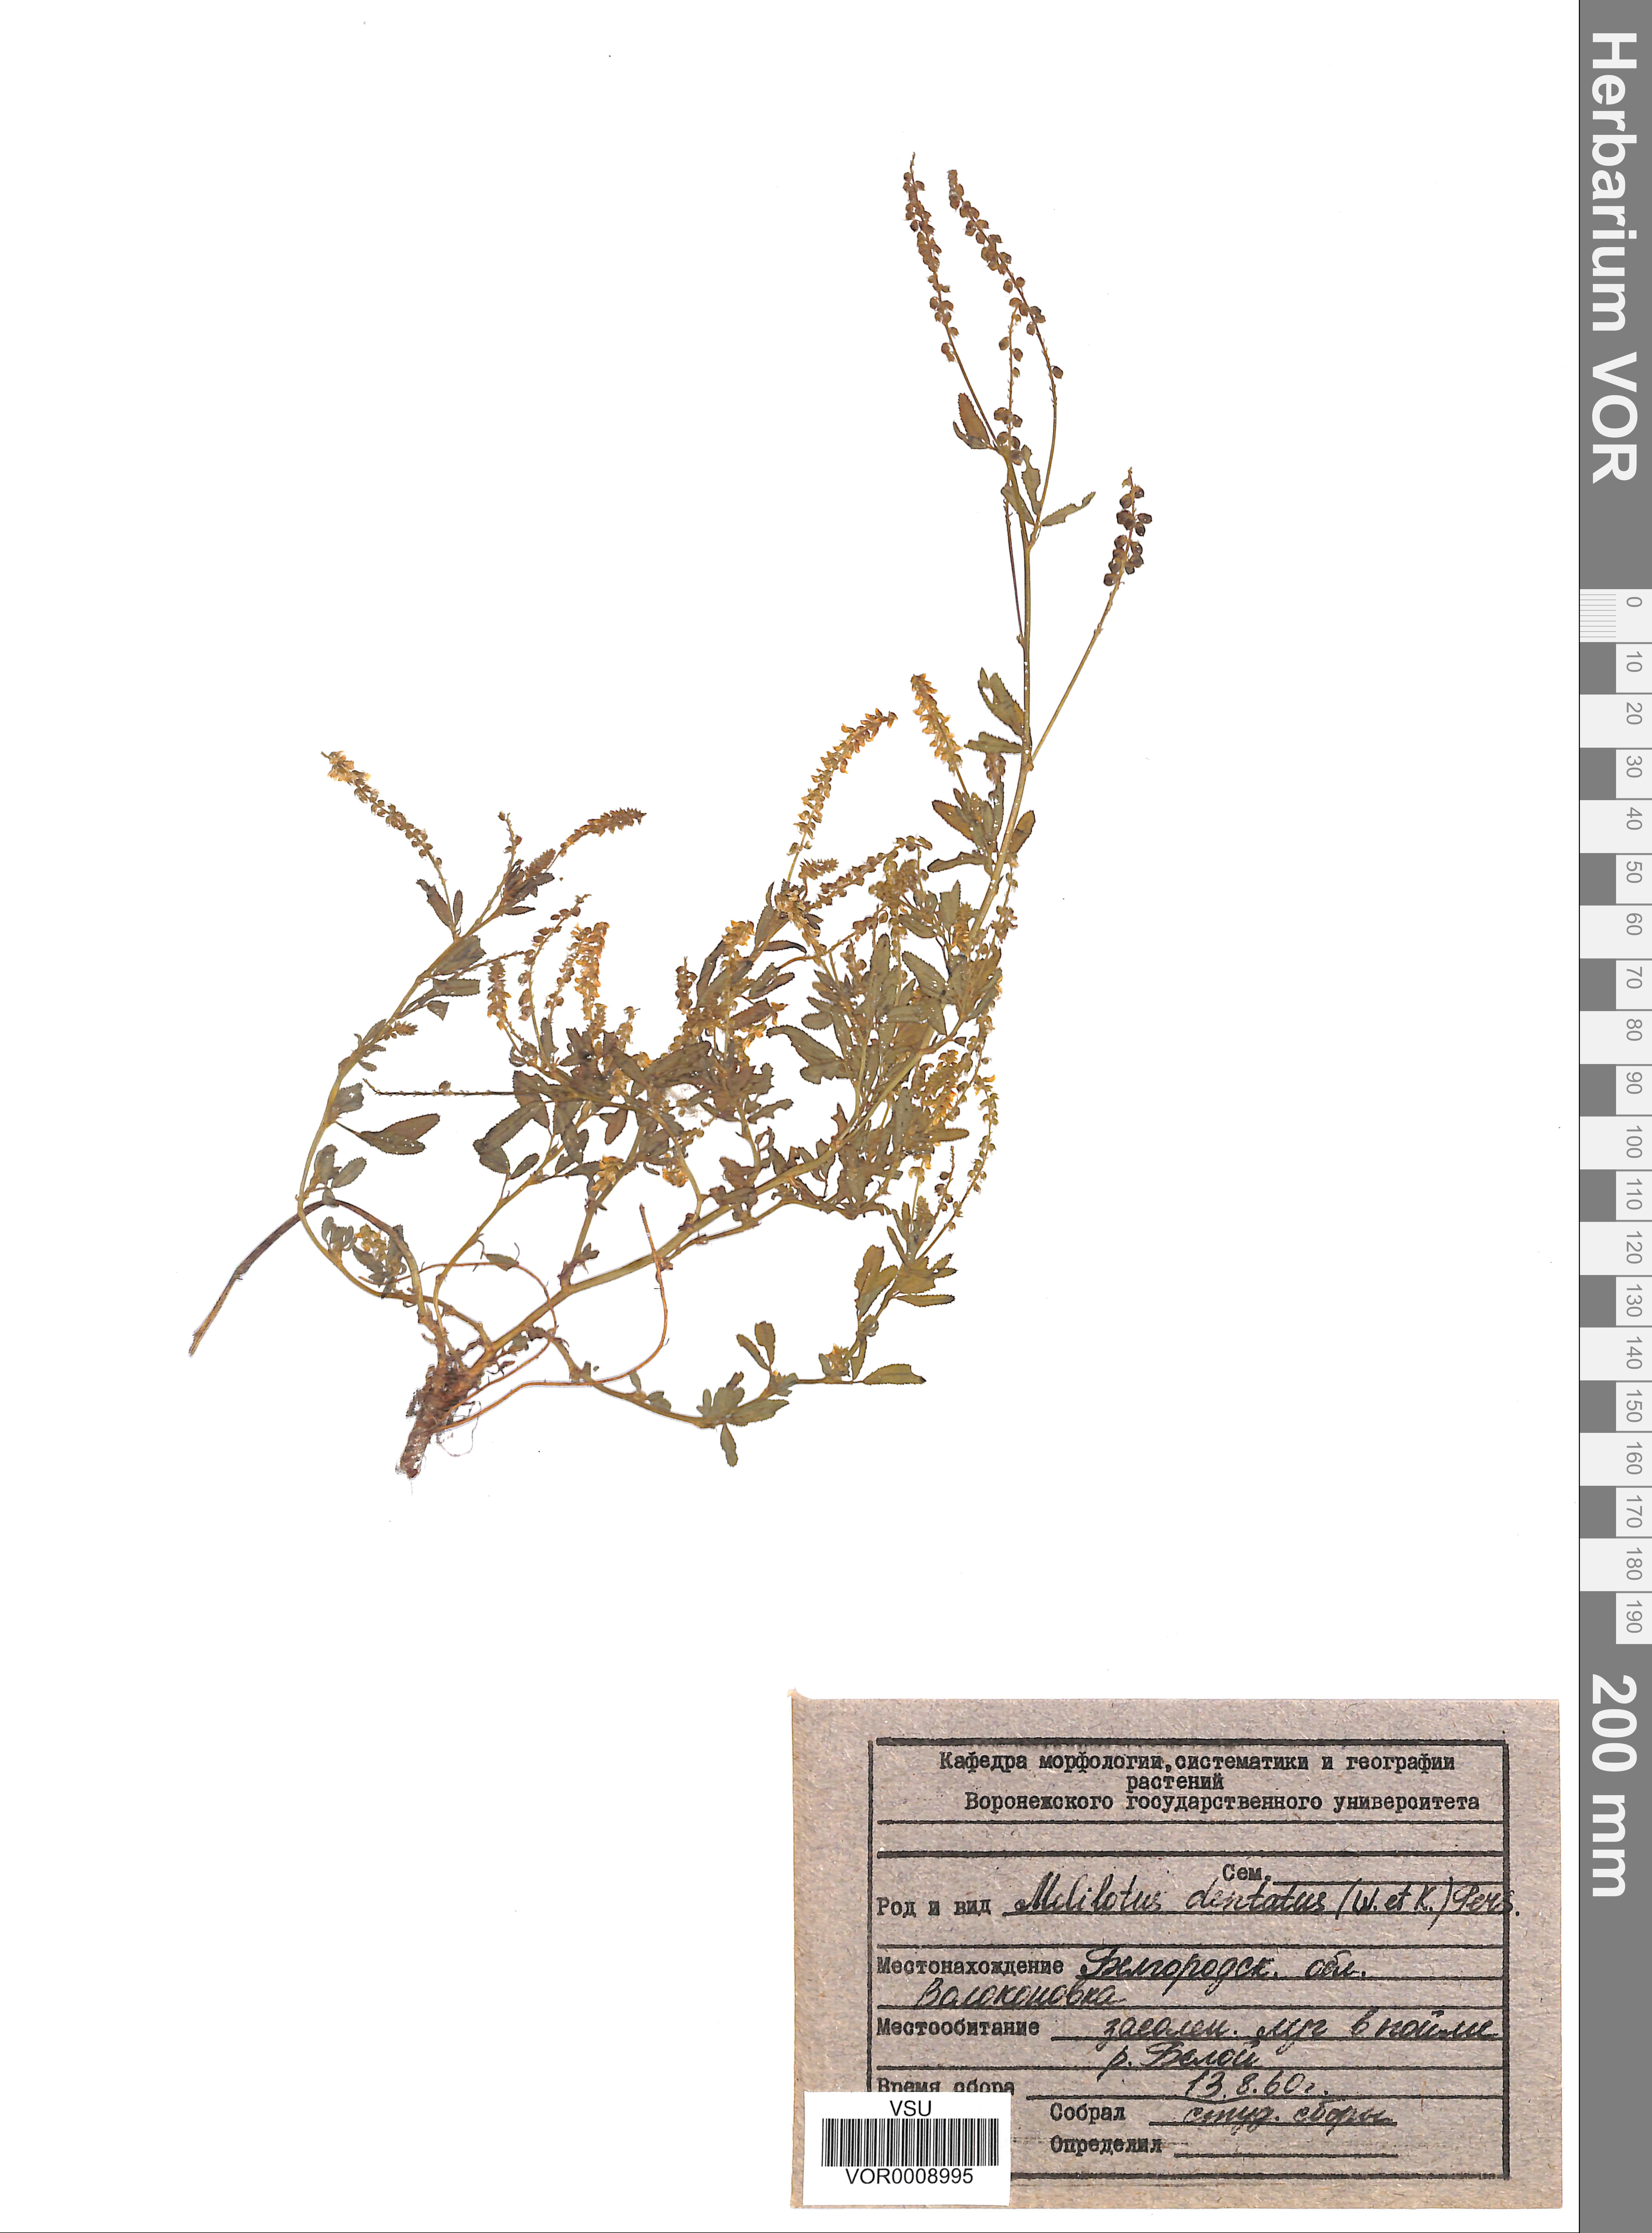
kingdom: Plantae
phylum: Tracheophyta
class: Magnoliopsida
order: Fabales
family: Fabaceae
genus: Melilotus
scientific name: Melilotus dentatus
